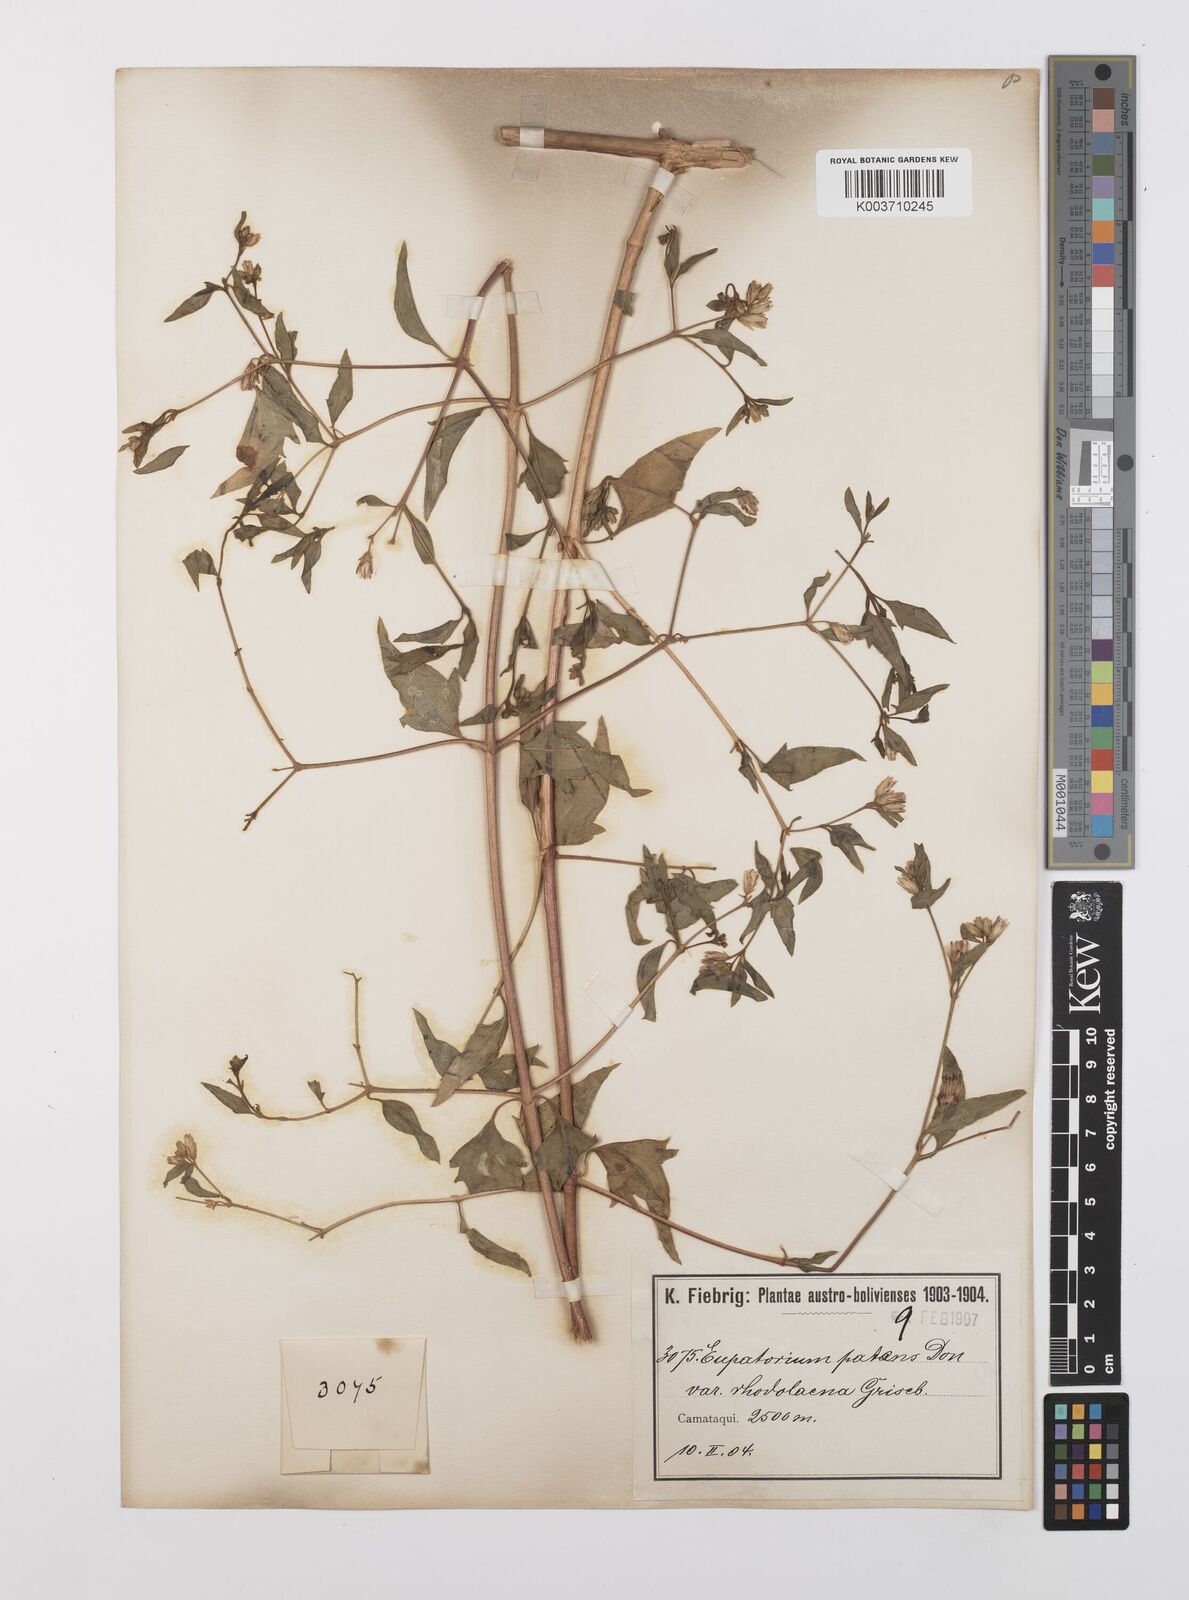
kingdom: Plantae
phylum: Tracheophyta
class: Magnoliopsida
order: Asterales
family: Asteraceae
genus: Austrobrickellia
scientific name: Austrobrickellia patens
